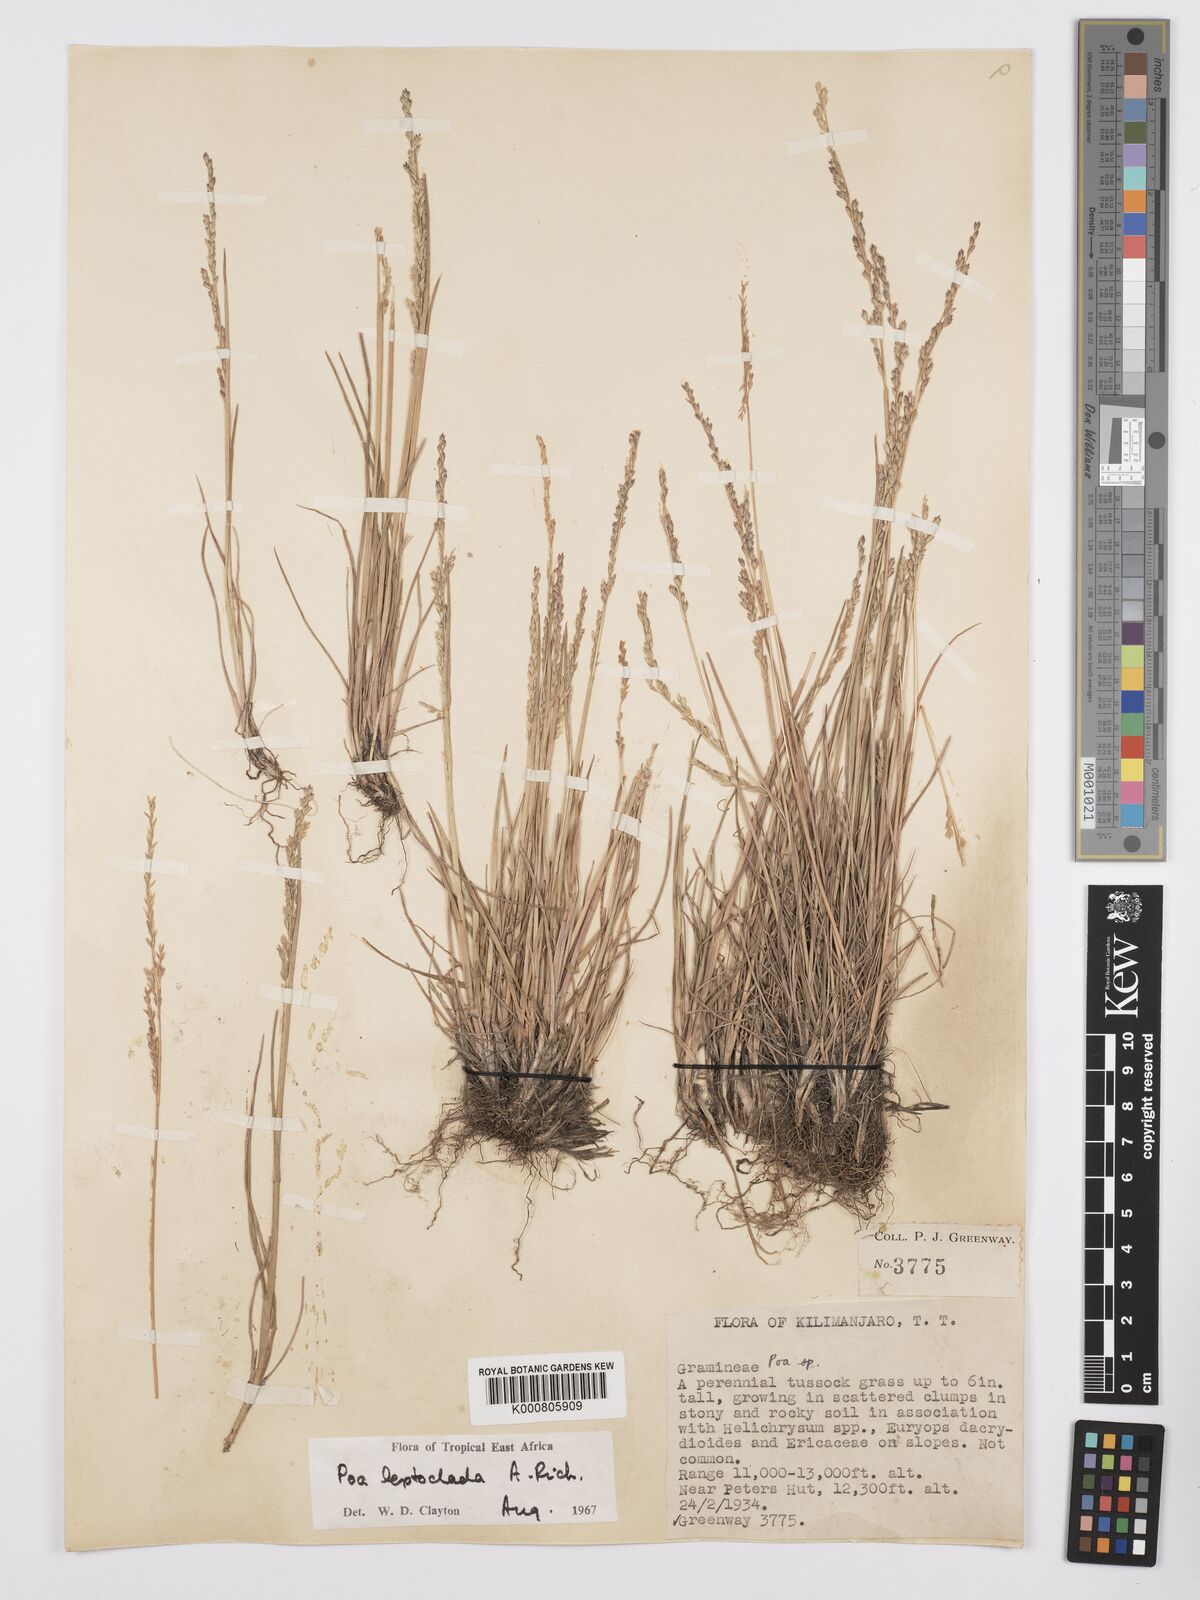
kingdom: Plantae
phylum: Tracheophyta
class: Liliopsida
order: Poales
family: Poaceae
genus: Poa
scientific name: Poa leptoclada
